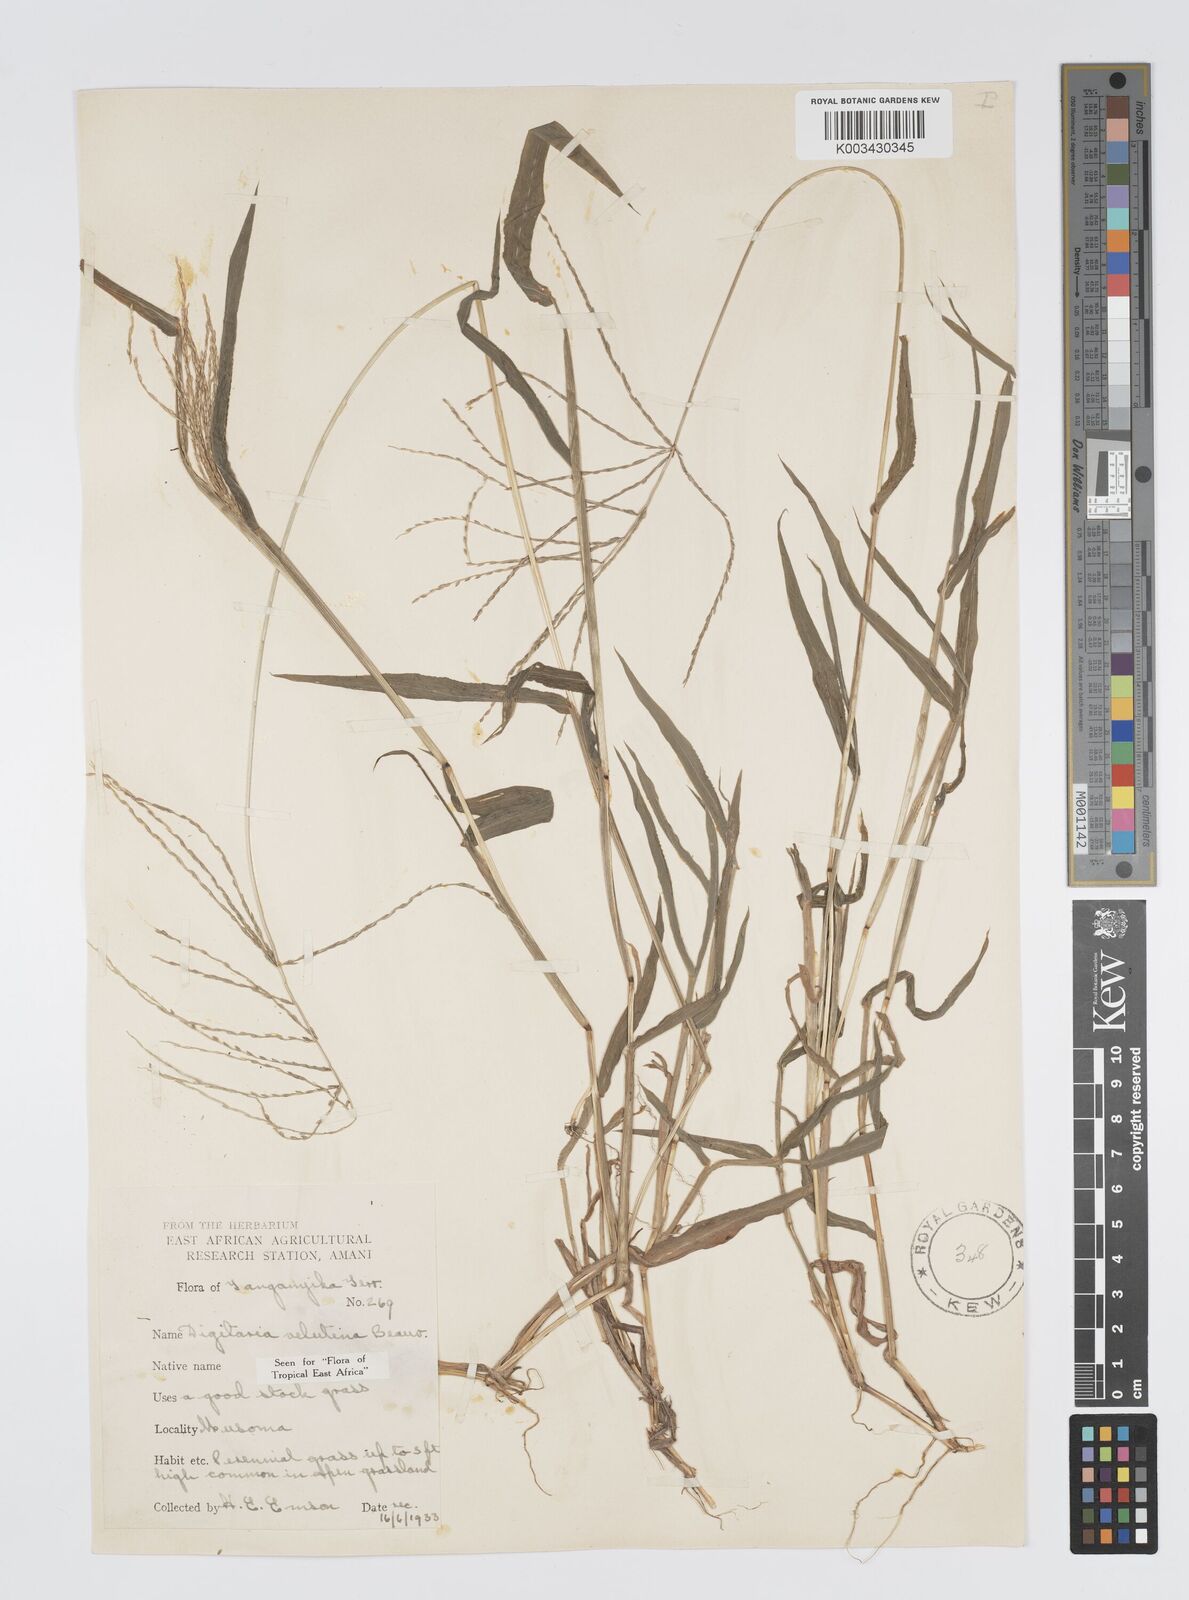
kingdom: Plantae
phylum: Tracheophyta
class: Liliopsida
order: Poales
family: Poaceae
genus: Digitaria
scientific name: Digitaria velutina
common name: Long-plume finger grass
